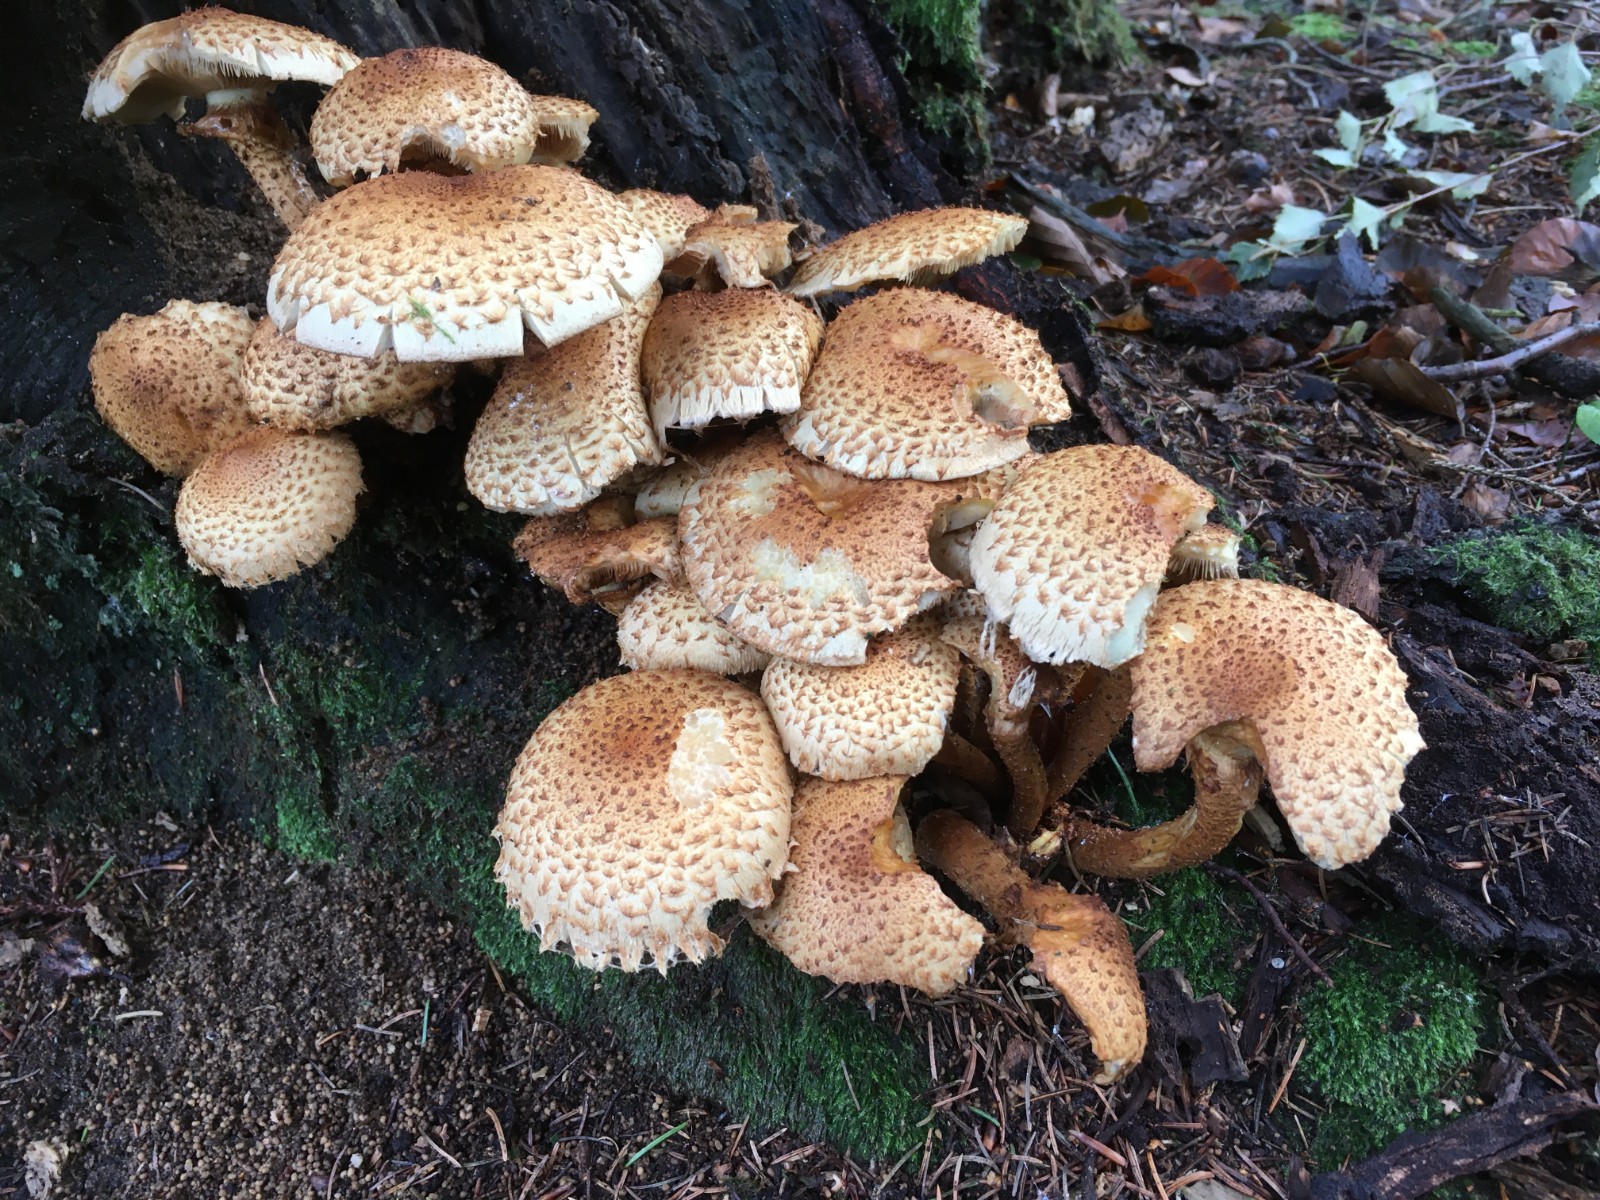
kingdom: Fungi
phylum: Basidiomycota
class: Agaricomycetes
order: Agaricales
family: Strophariaceae
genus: Pholiota
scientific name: Pholiota squarrosa
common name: krumskællet skælhat
